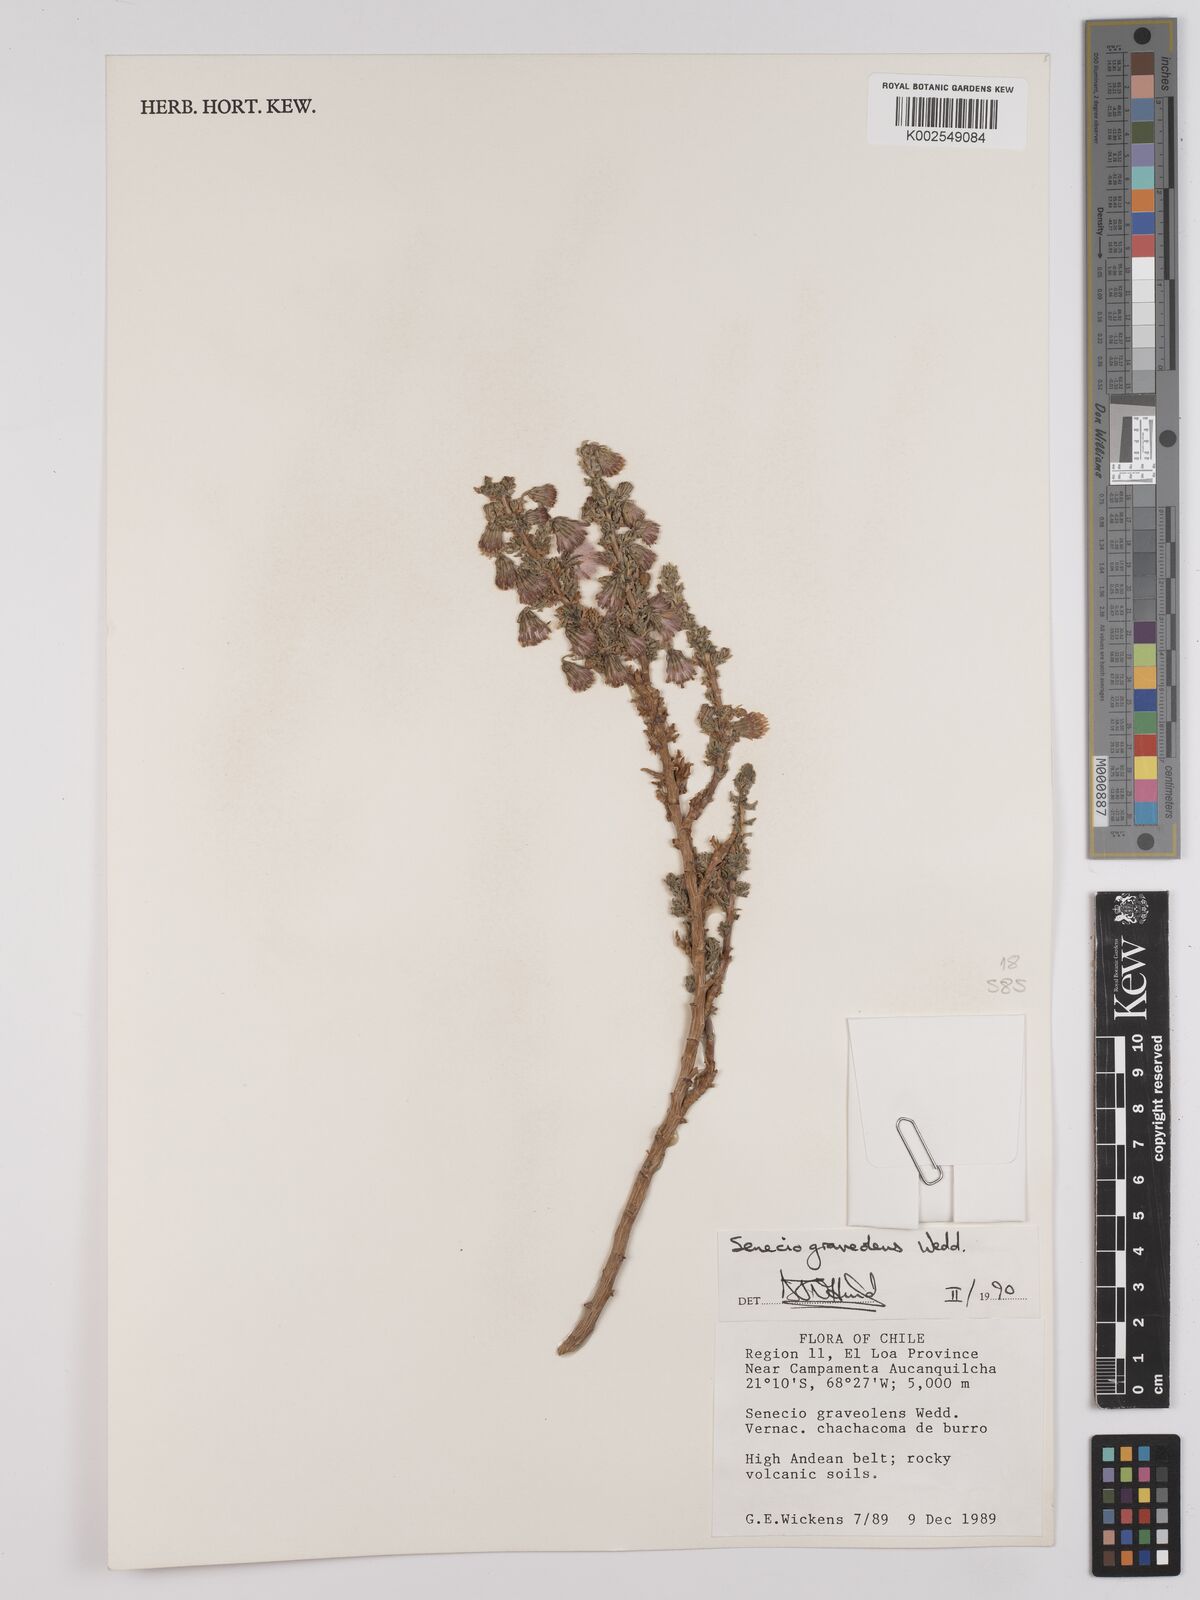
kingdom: Plantae
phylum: Tracheophyta
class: Magnoliopsida
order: Asterales
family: Asteraceae
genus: Senecio
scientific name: Senecio nutans
